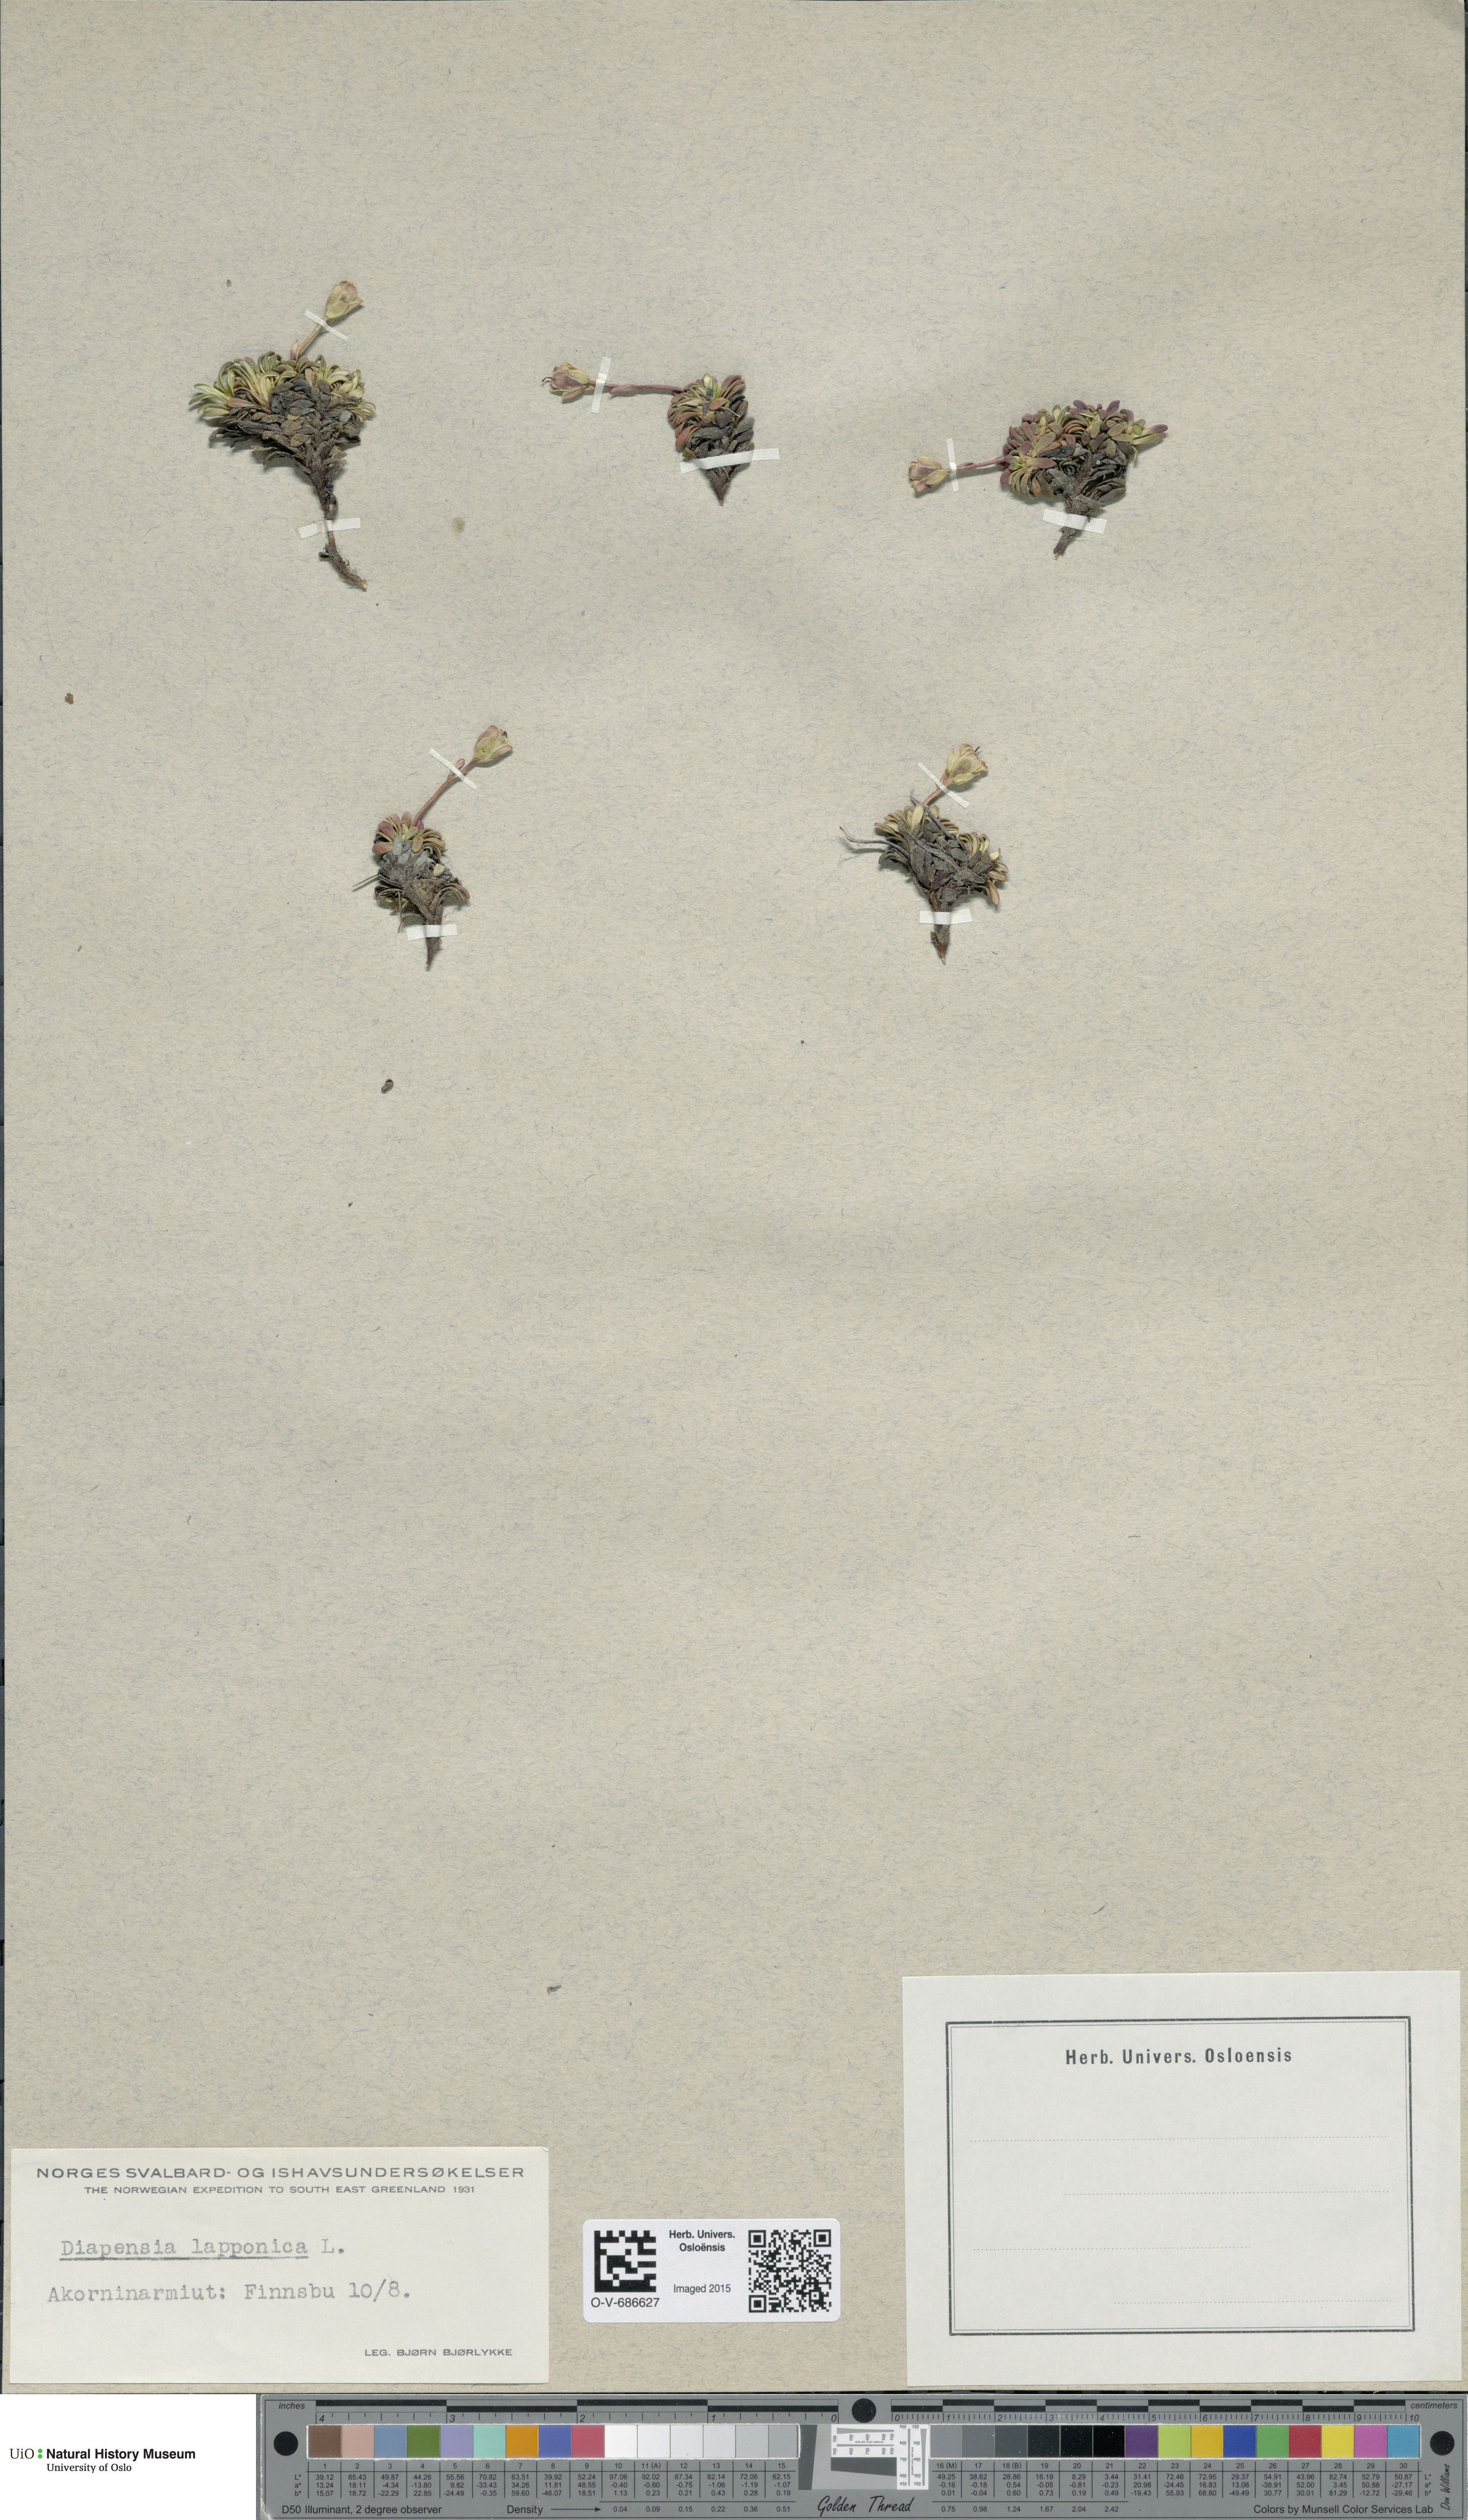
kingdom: Plantae
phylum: Tracheophyta
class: Magnoliopsida
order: Ericales
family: Diapensiaceae
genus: Diapensia
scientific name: Diapensia lapponica
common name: Diapensia
